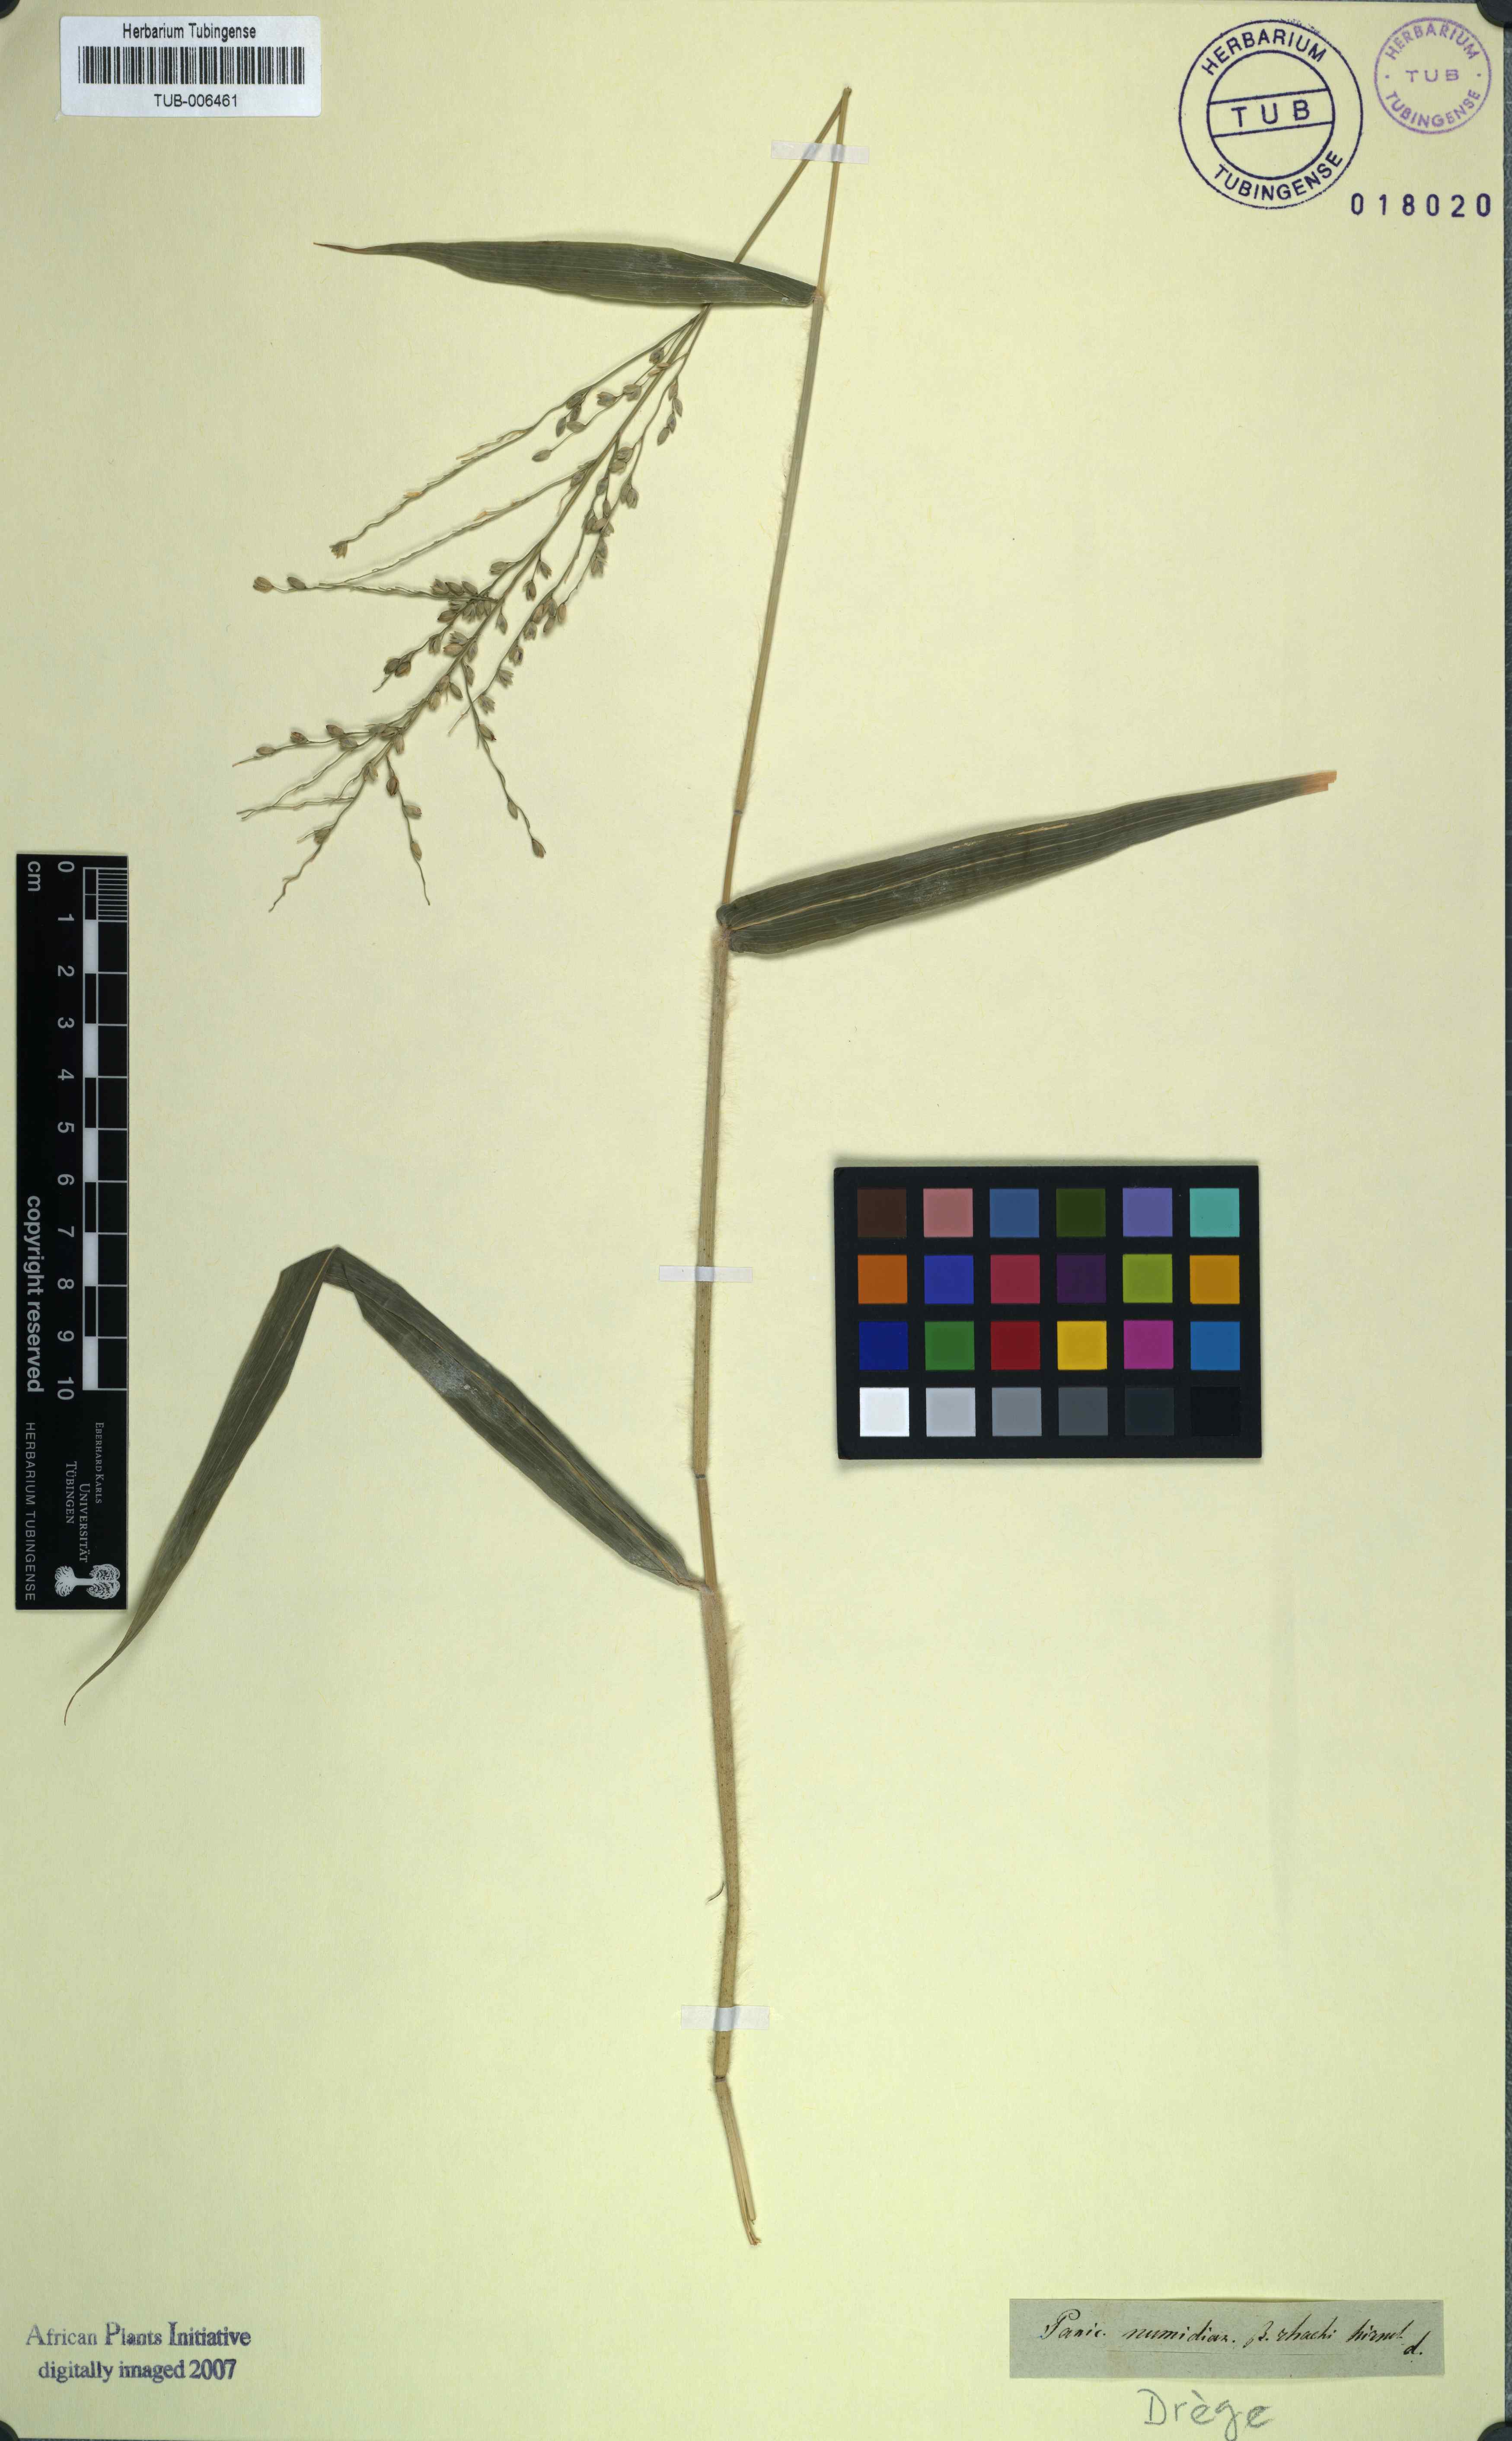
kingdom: Plantae
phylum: Tracheophyta
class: Liliopsida
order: Poales
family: Poaceae
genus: Urochloa
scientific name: Urochloa mutica
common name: Para grass
